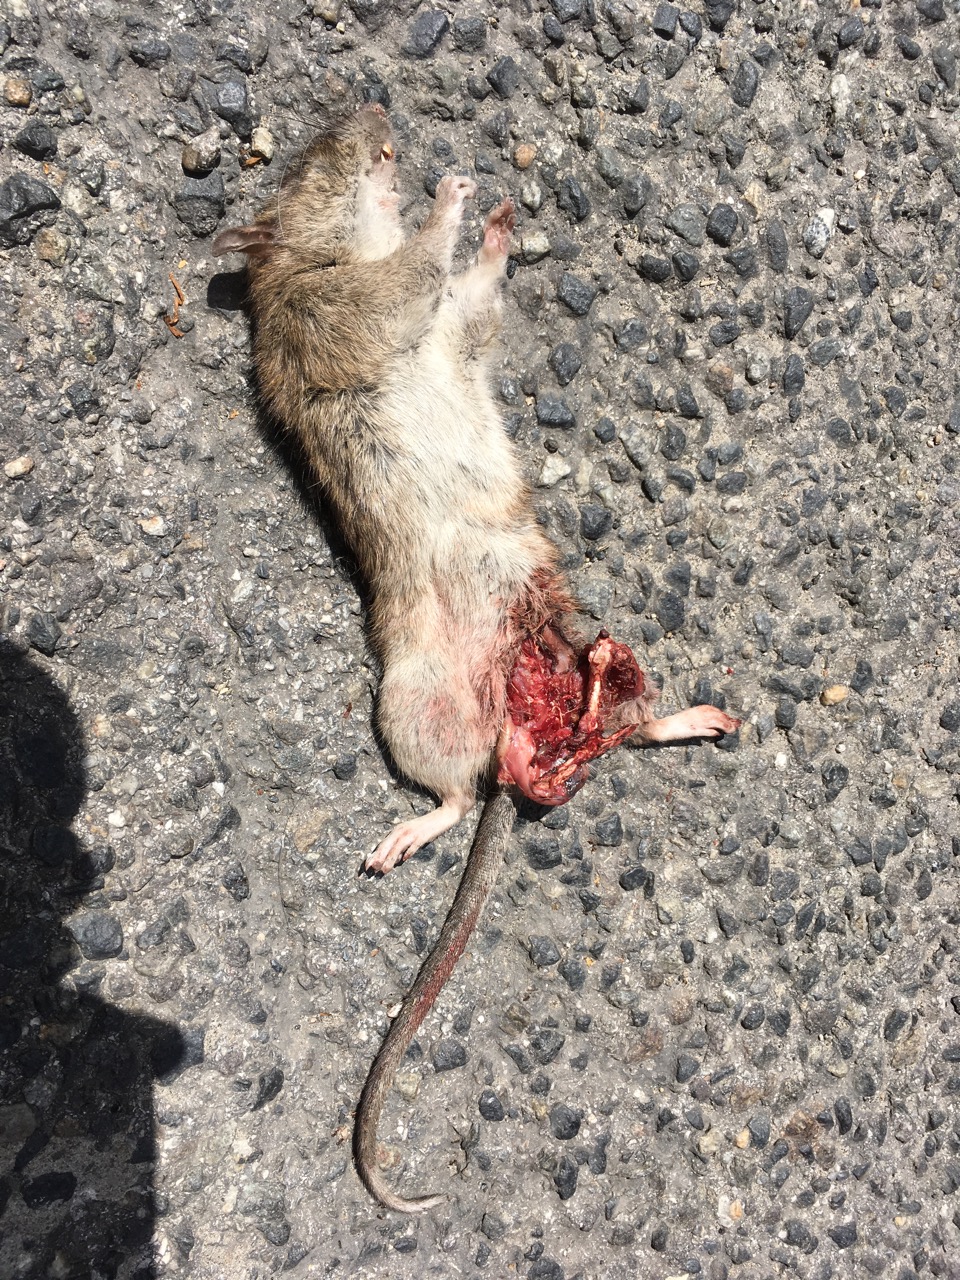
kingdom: Animalia
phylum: Chordata
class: Mammalia
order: Rodentia
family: Muridae
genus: Rattus
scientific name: Rattus norvegicus
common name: Brown rat
